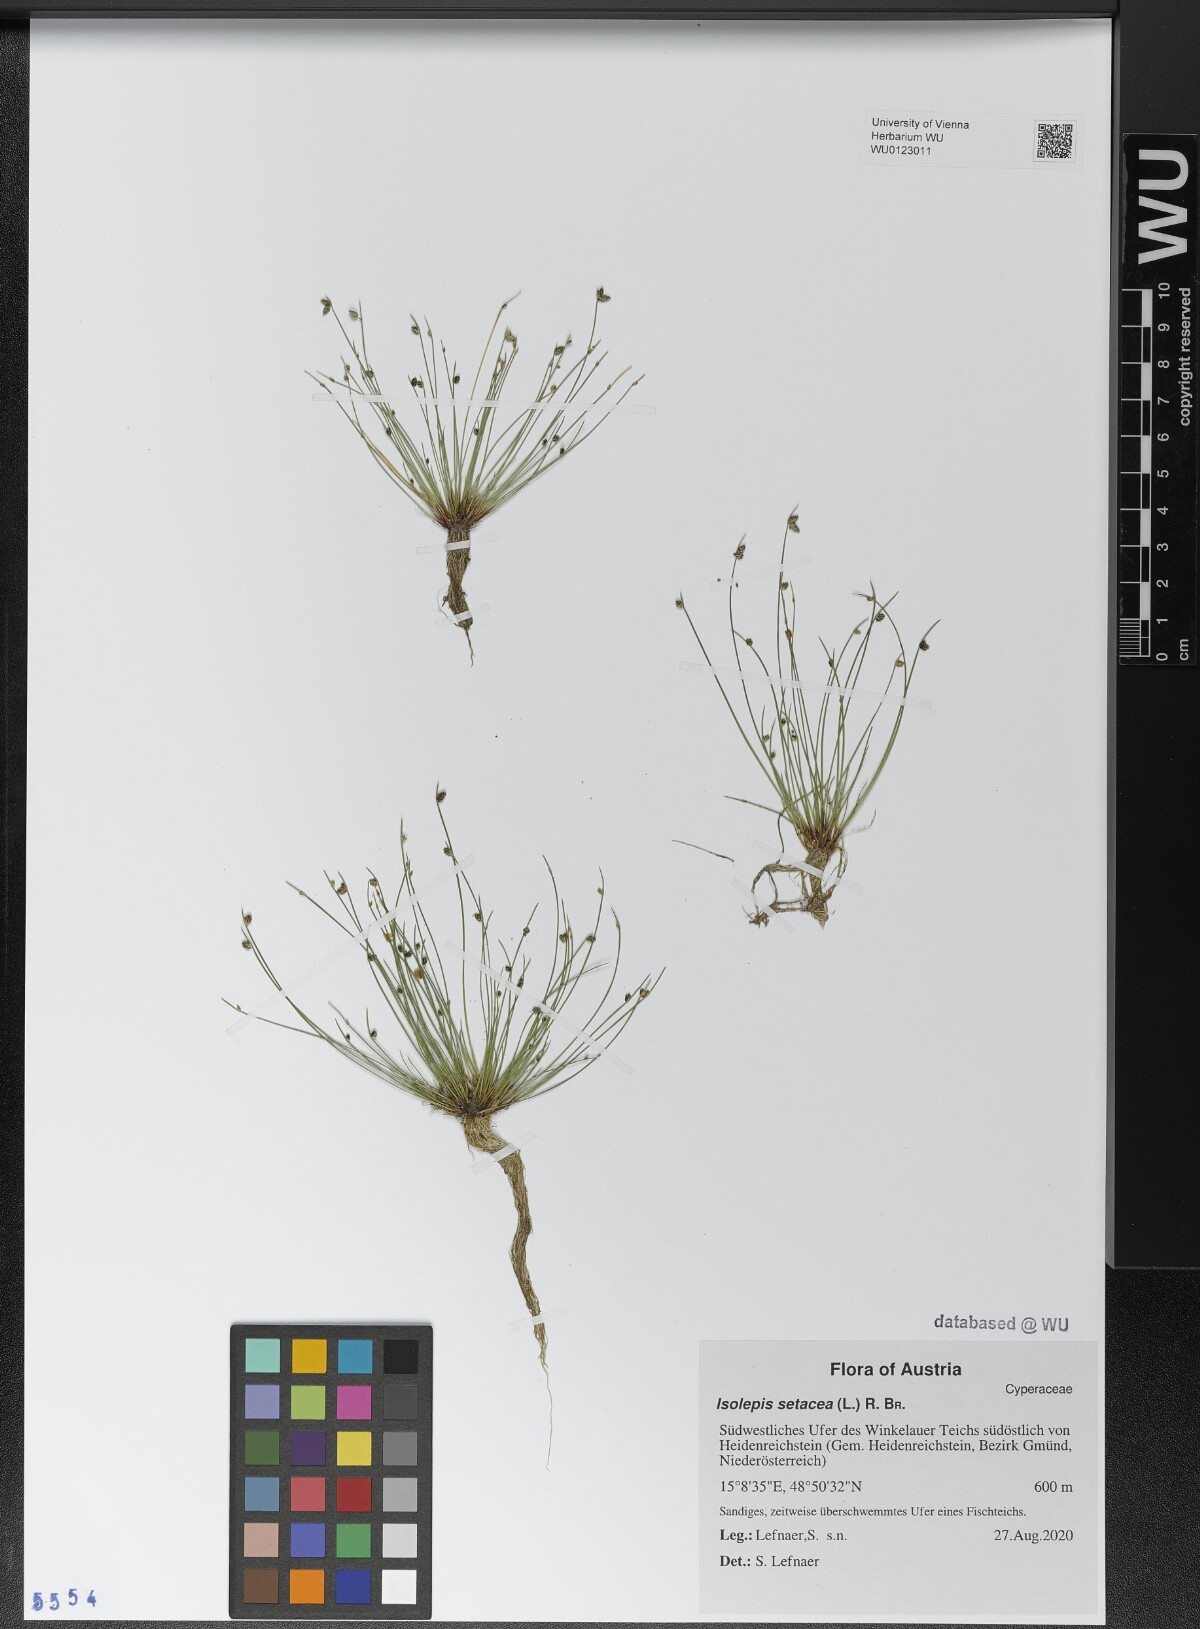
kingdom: Plantae
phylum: Tracheophyta
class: Liliopsida
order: Poales
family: Cyperaceae
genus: Isolepis
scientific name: Isolepis setacea
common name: Bristle club-rush
